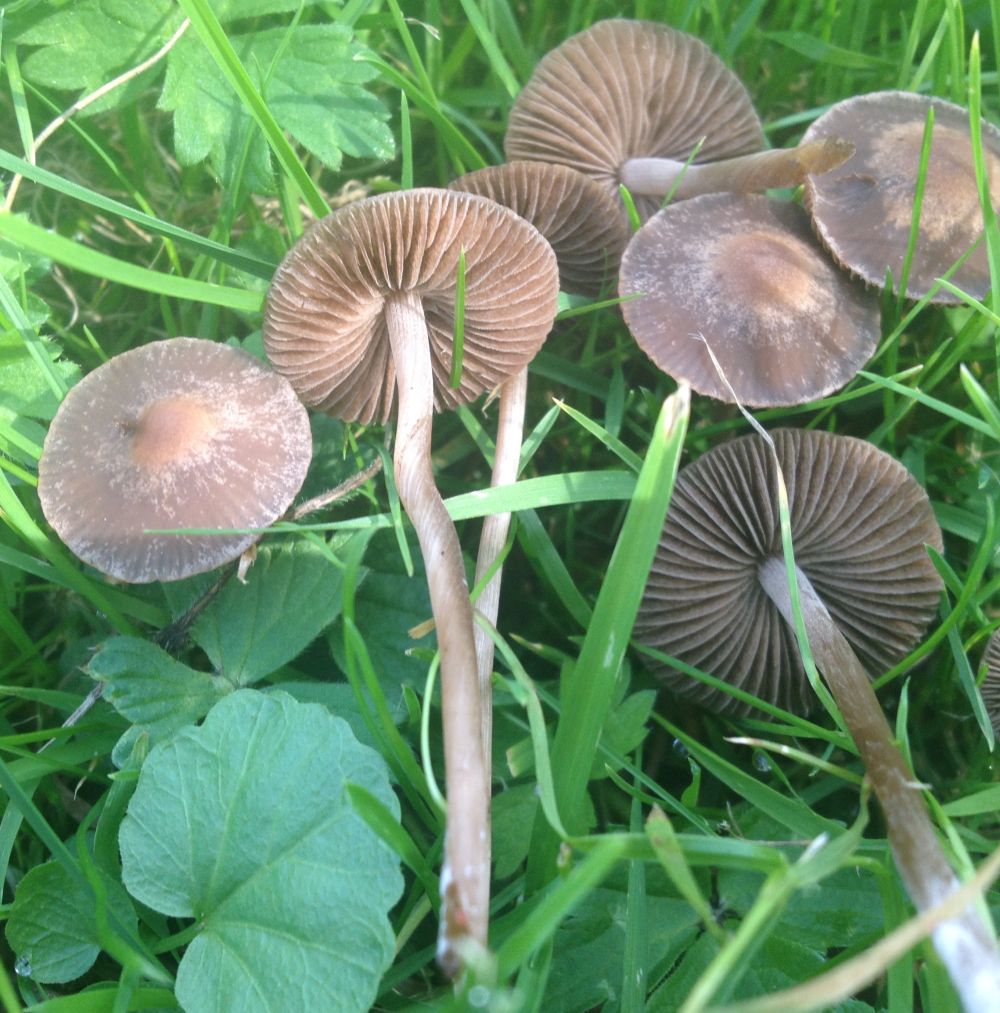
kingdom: Fungi
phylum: Basidiomycota
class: Agaricomycetes
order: Agaricales
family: Bolbitiaceae
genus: Panaeolina
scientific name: Panaeolina foenisecii
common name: høslætsvamp
